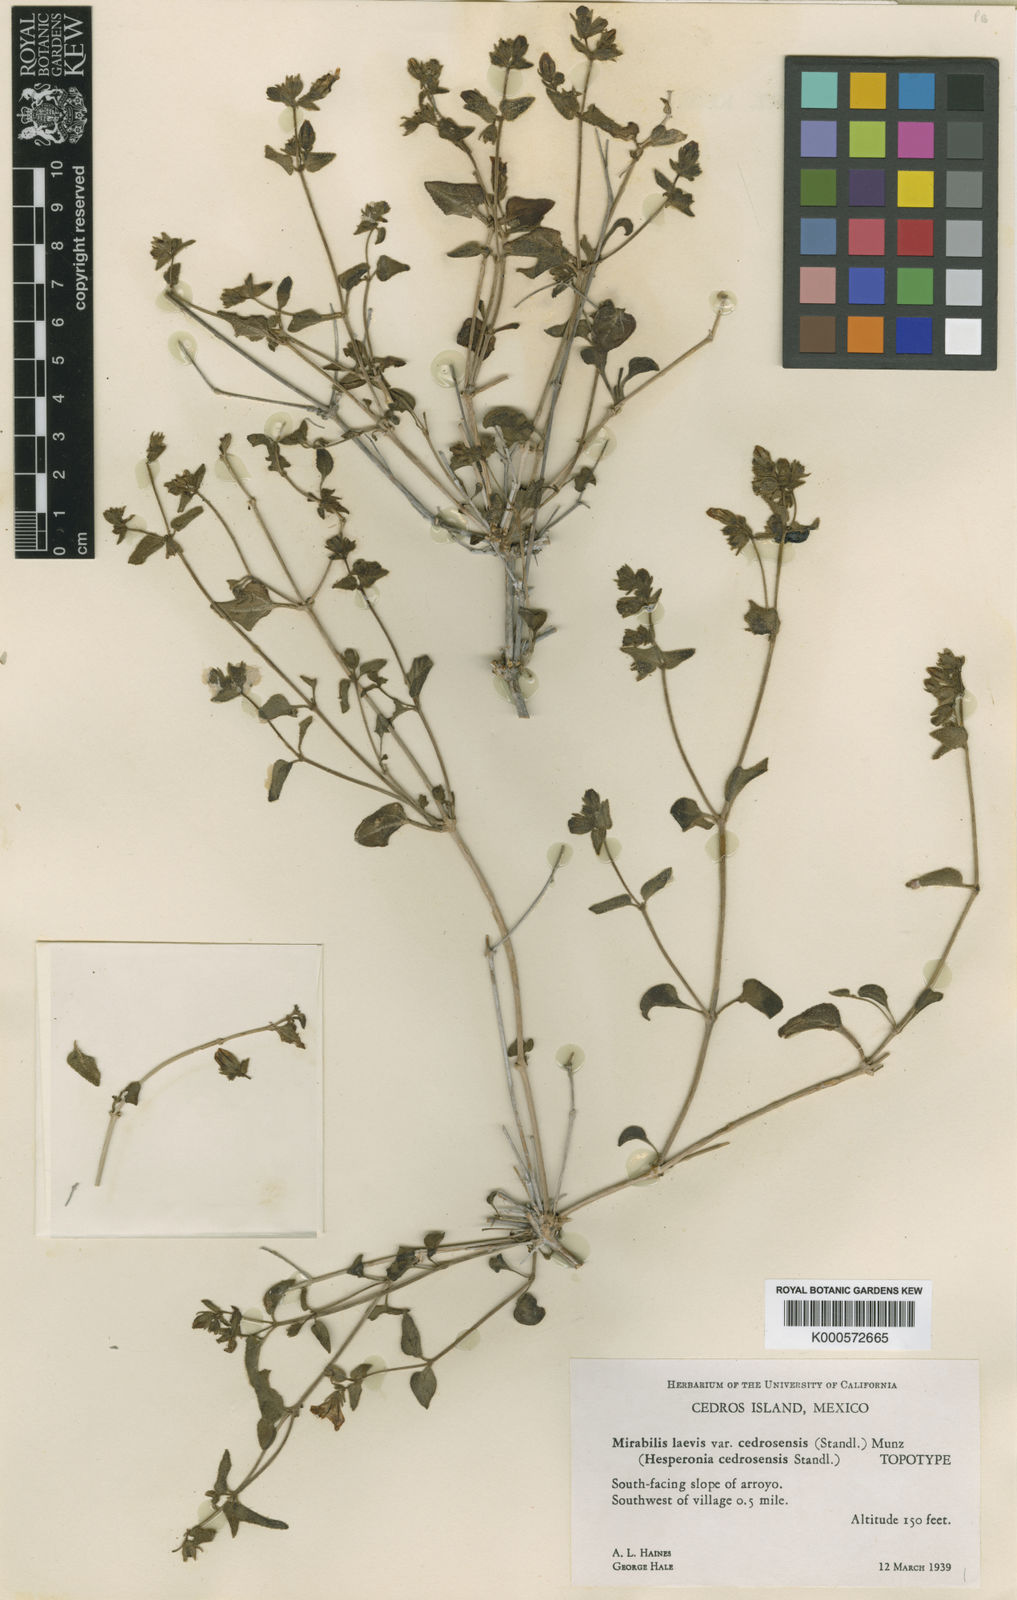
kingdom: Plantae
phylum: Tracheophyta
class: Magnoliopsida
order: Caryophyllales
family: Nyctaginaceae
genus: Mirabilis
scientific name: Mirabilis laevis
